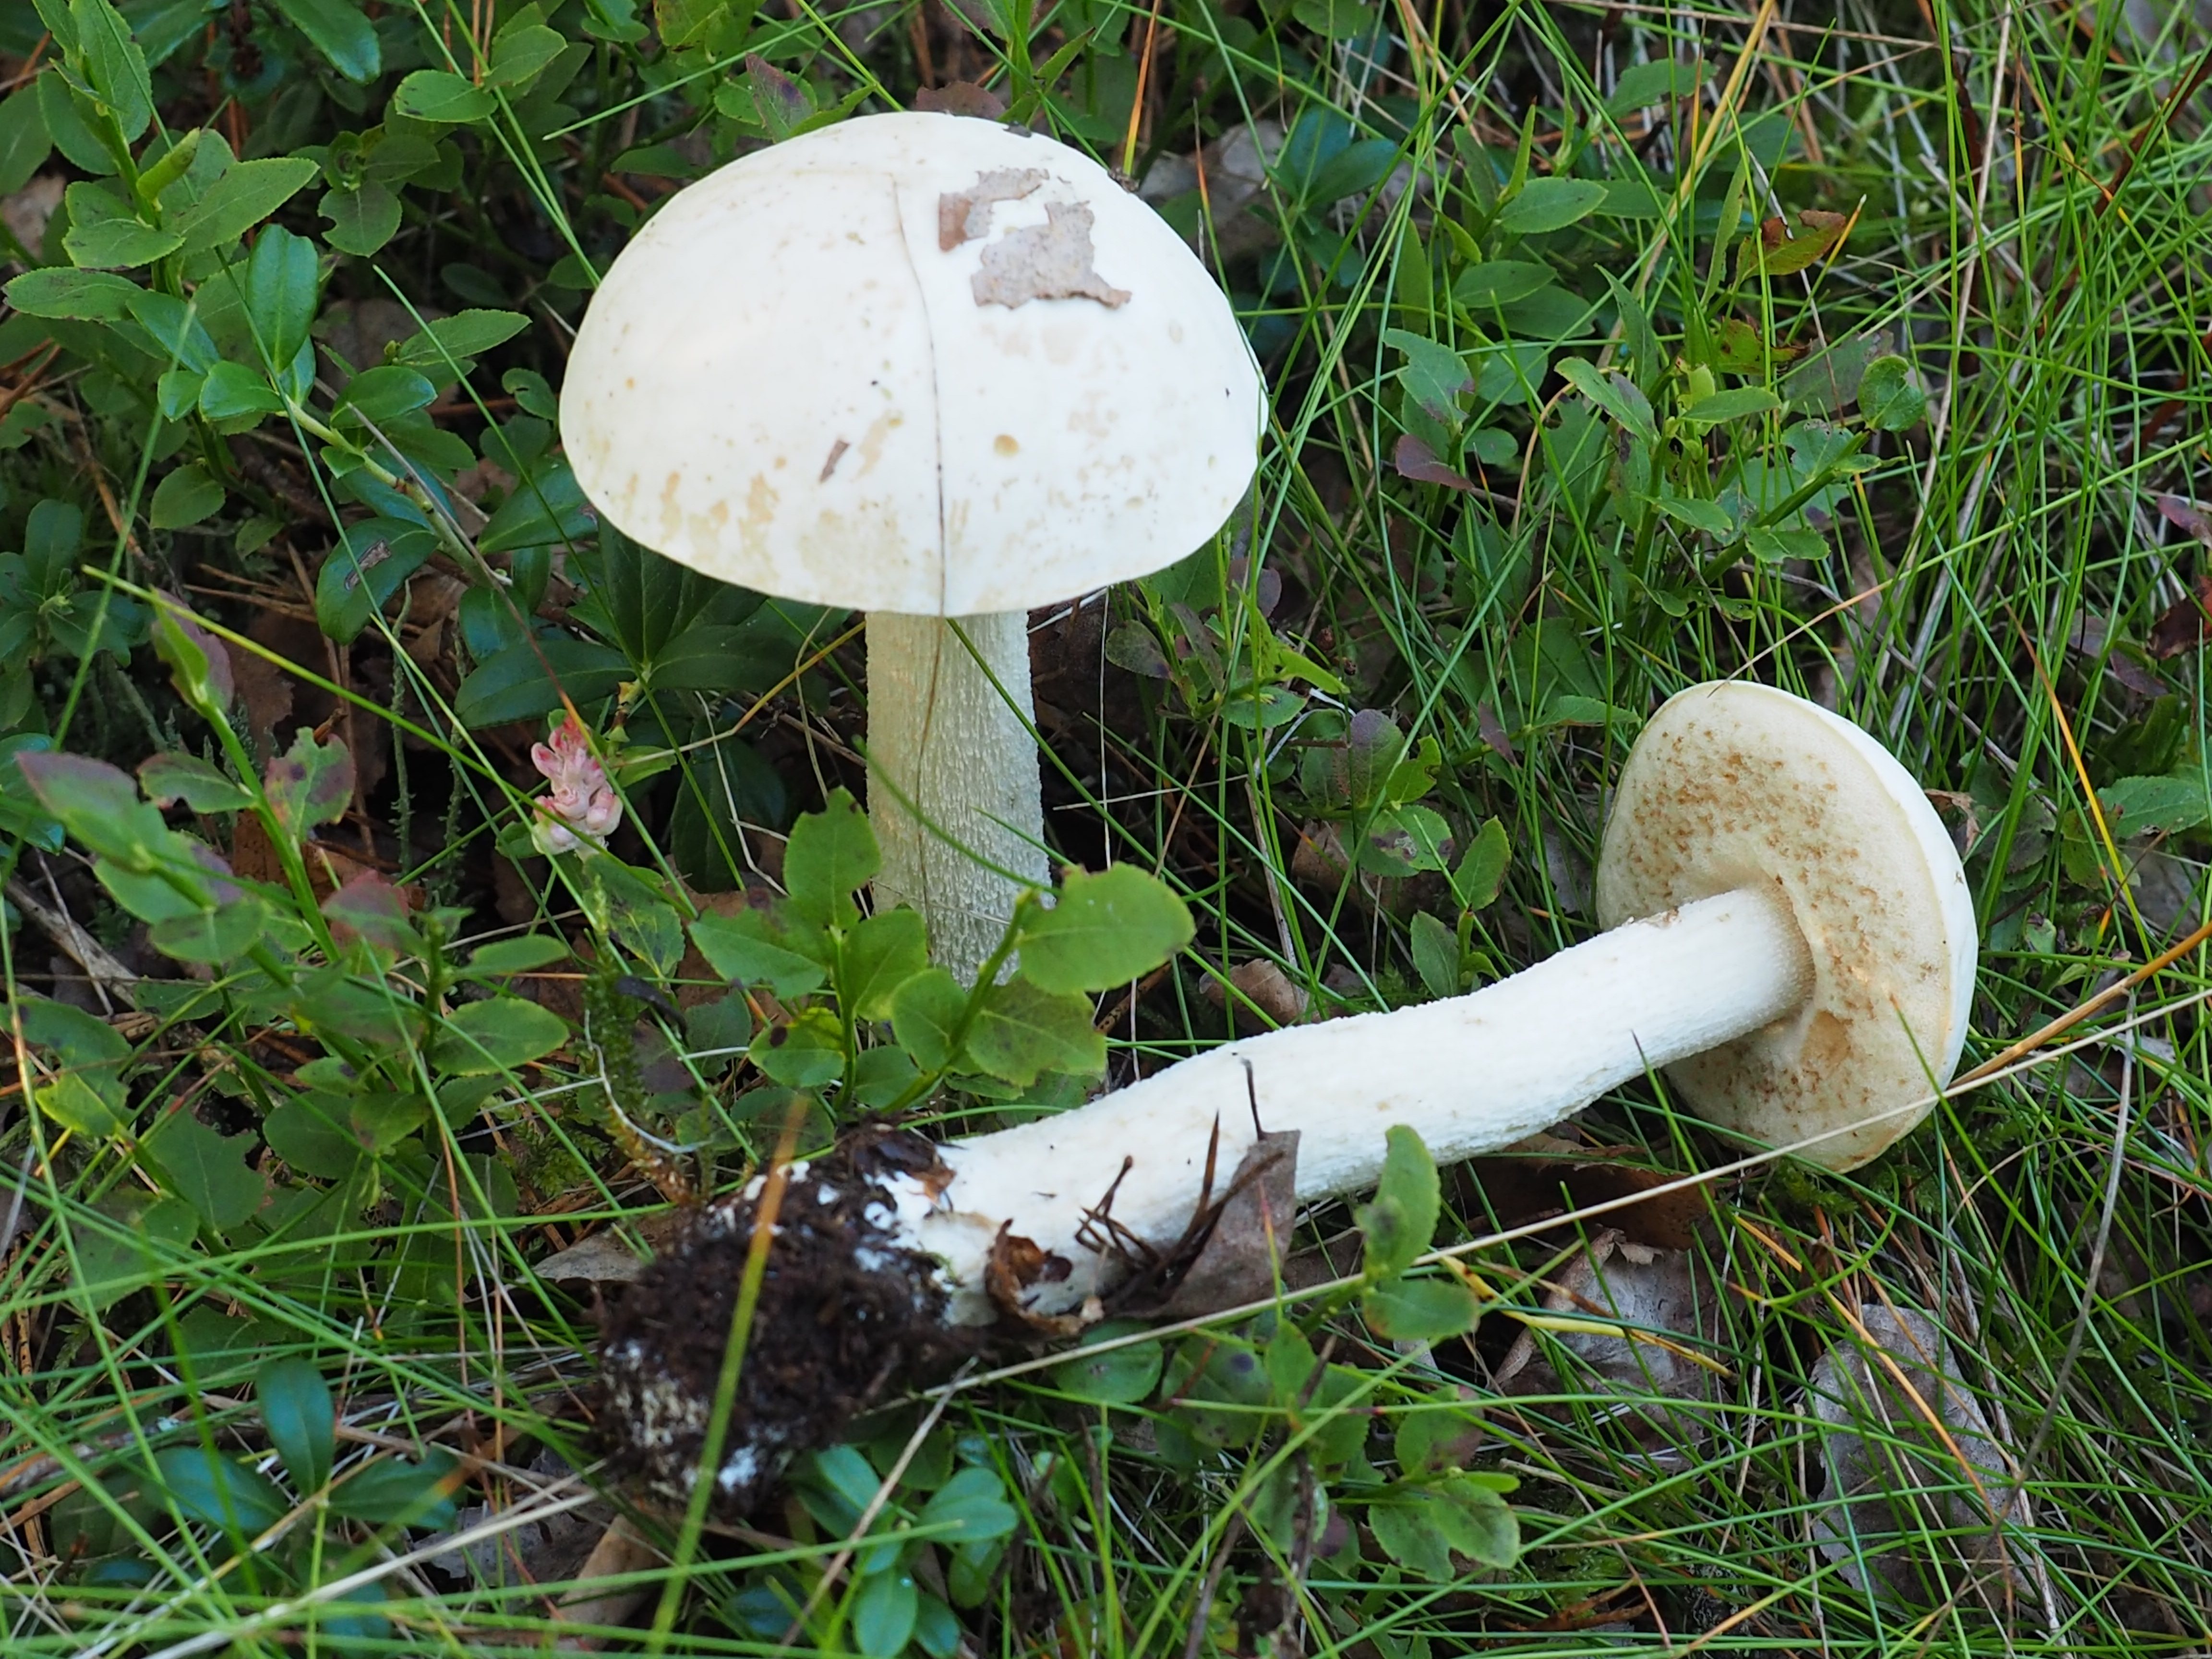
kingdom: Fungi
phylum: Basidiomycota
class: Agaricomycetes
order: Boletales
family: Boletaceae
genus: Leccinum
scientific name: Leccinum holopus
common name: Ghost bolete
